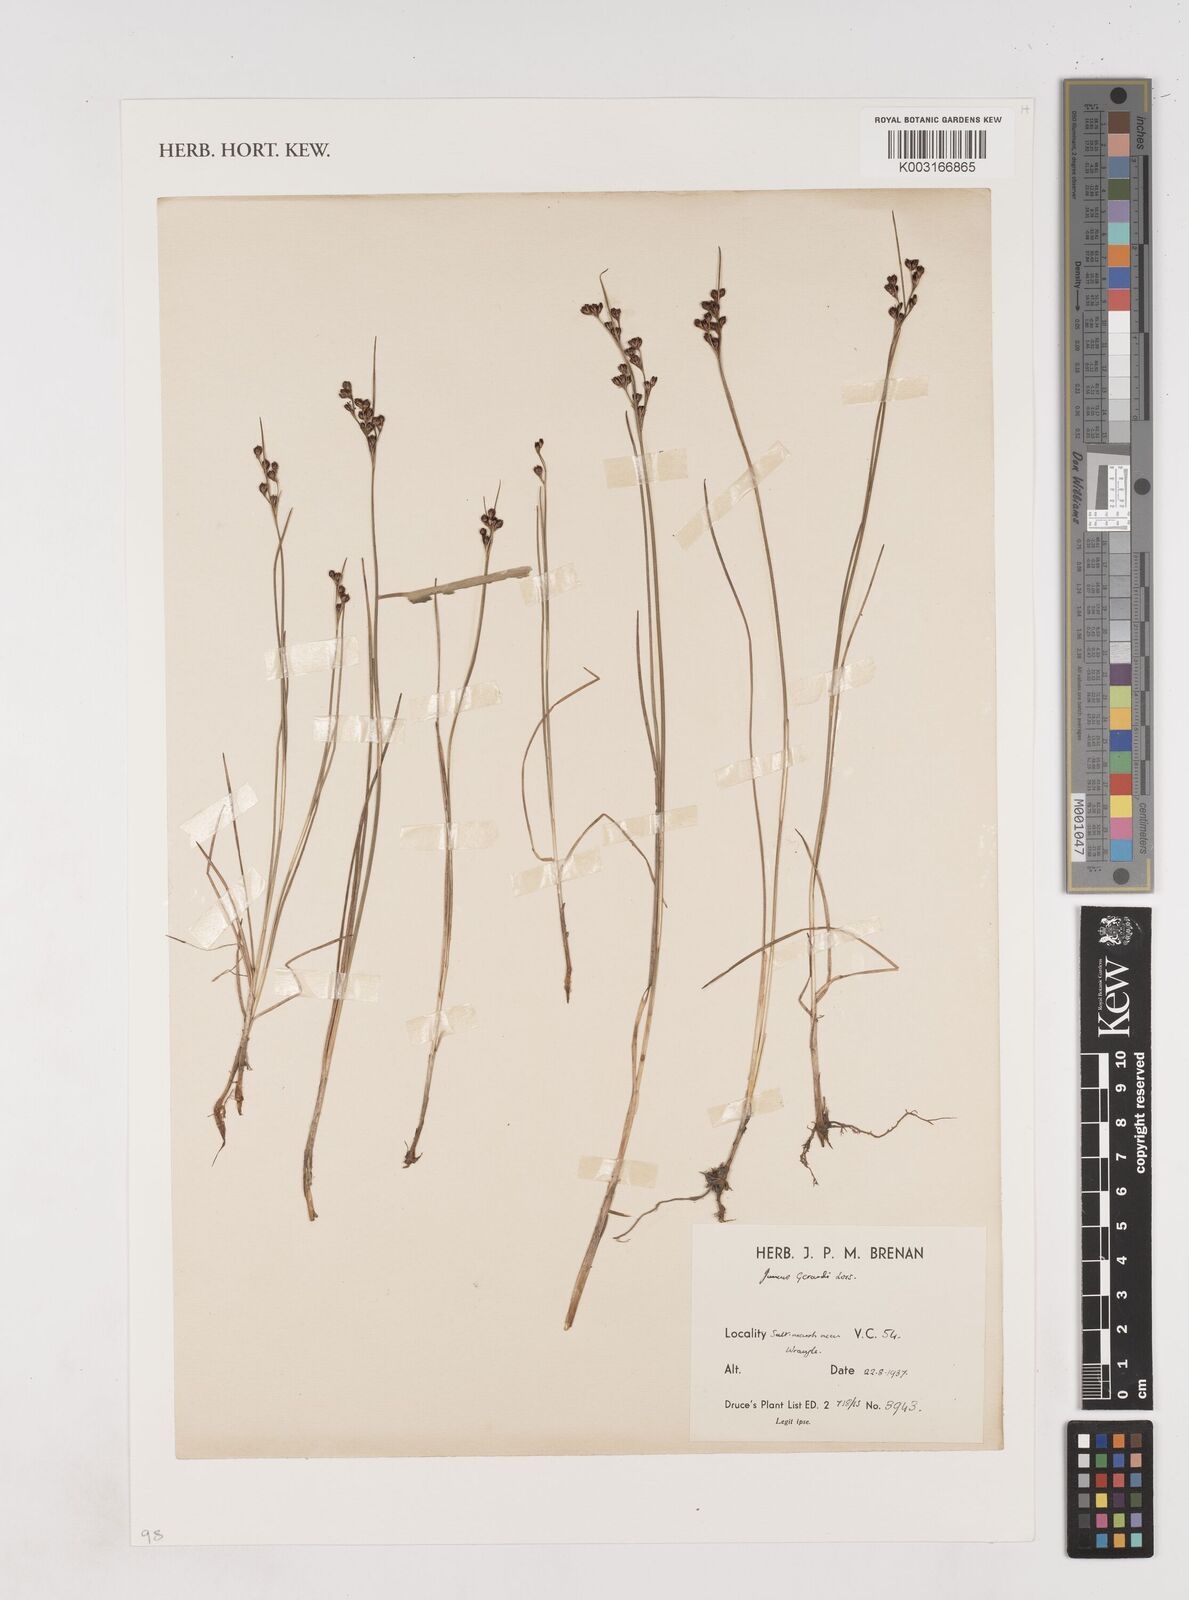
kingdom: Plantae
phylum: Tracheophyta
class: Liliopsida
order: Poales
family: Juncaceae
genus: Juncus
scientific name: Juncus gerardi
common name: Saltmarsh rush
